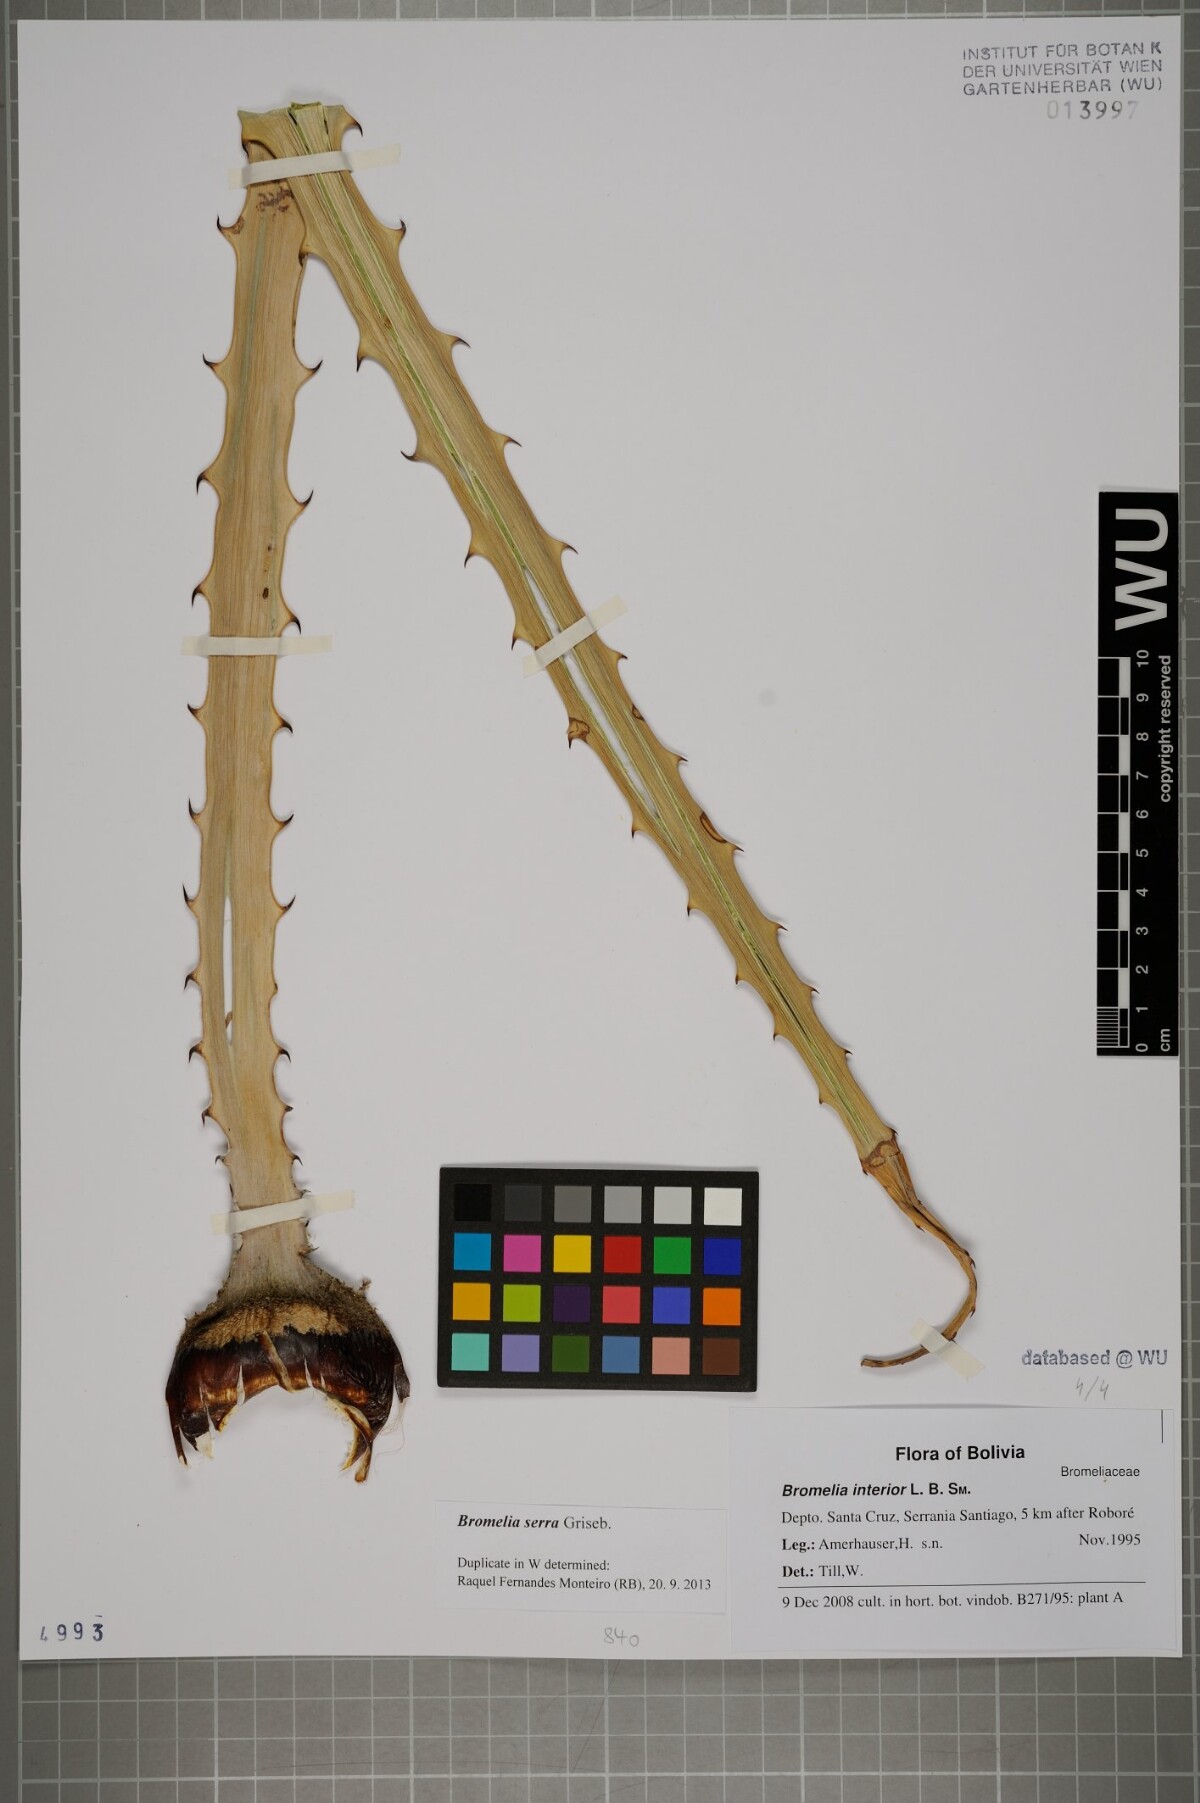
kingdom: Plantae
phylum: Tracheophyta
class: Liliopsida
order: Poales
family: Bromeliaceae
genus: Bromelia
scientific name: Bromelia serra
